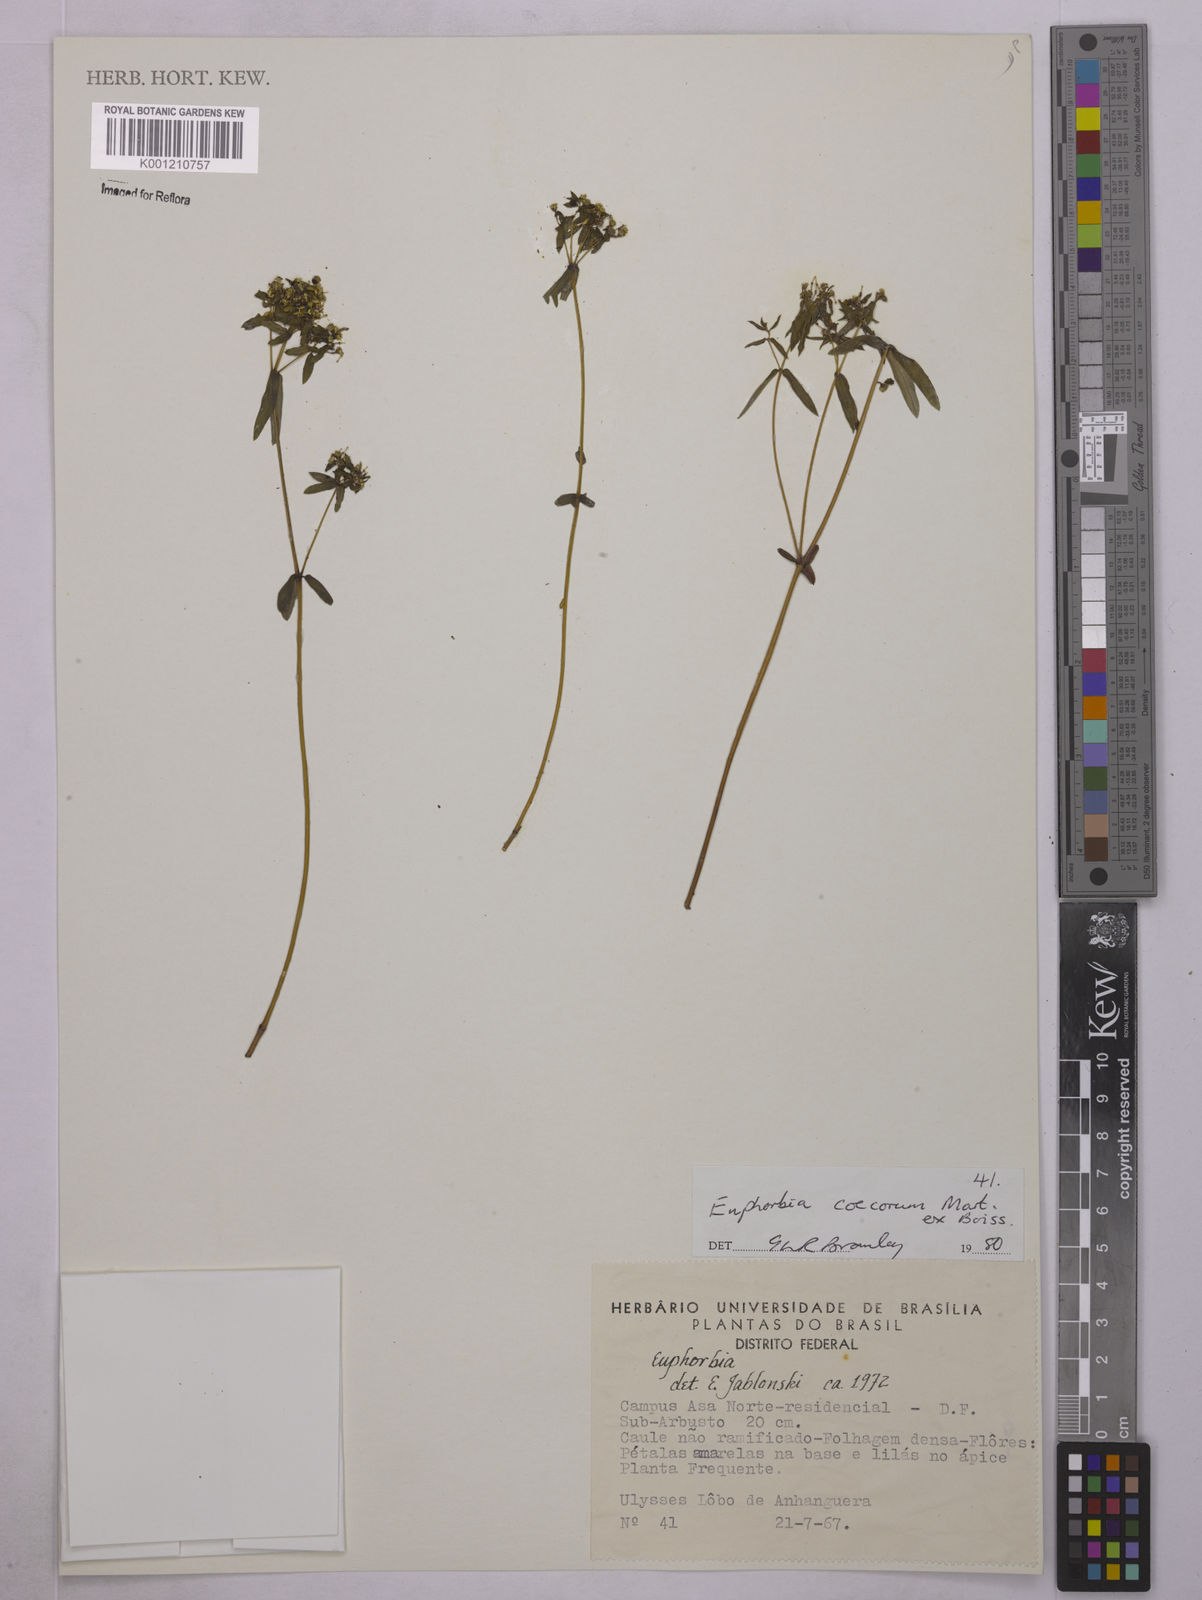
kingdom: Plantae
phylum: Tracheophyta
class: Magnoliopsida
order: Malpighiales
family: Euphorbiaceae
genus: Euphorbia
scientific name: Euphorbia potentilloides
